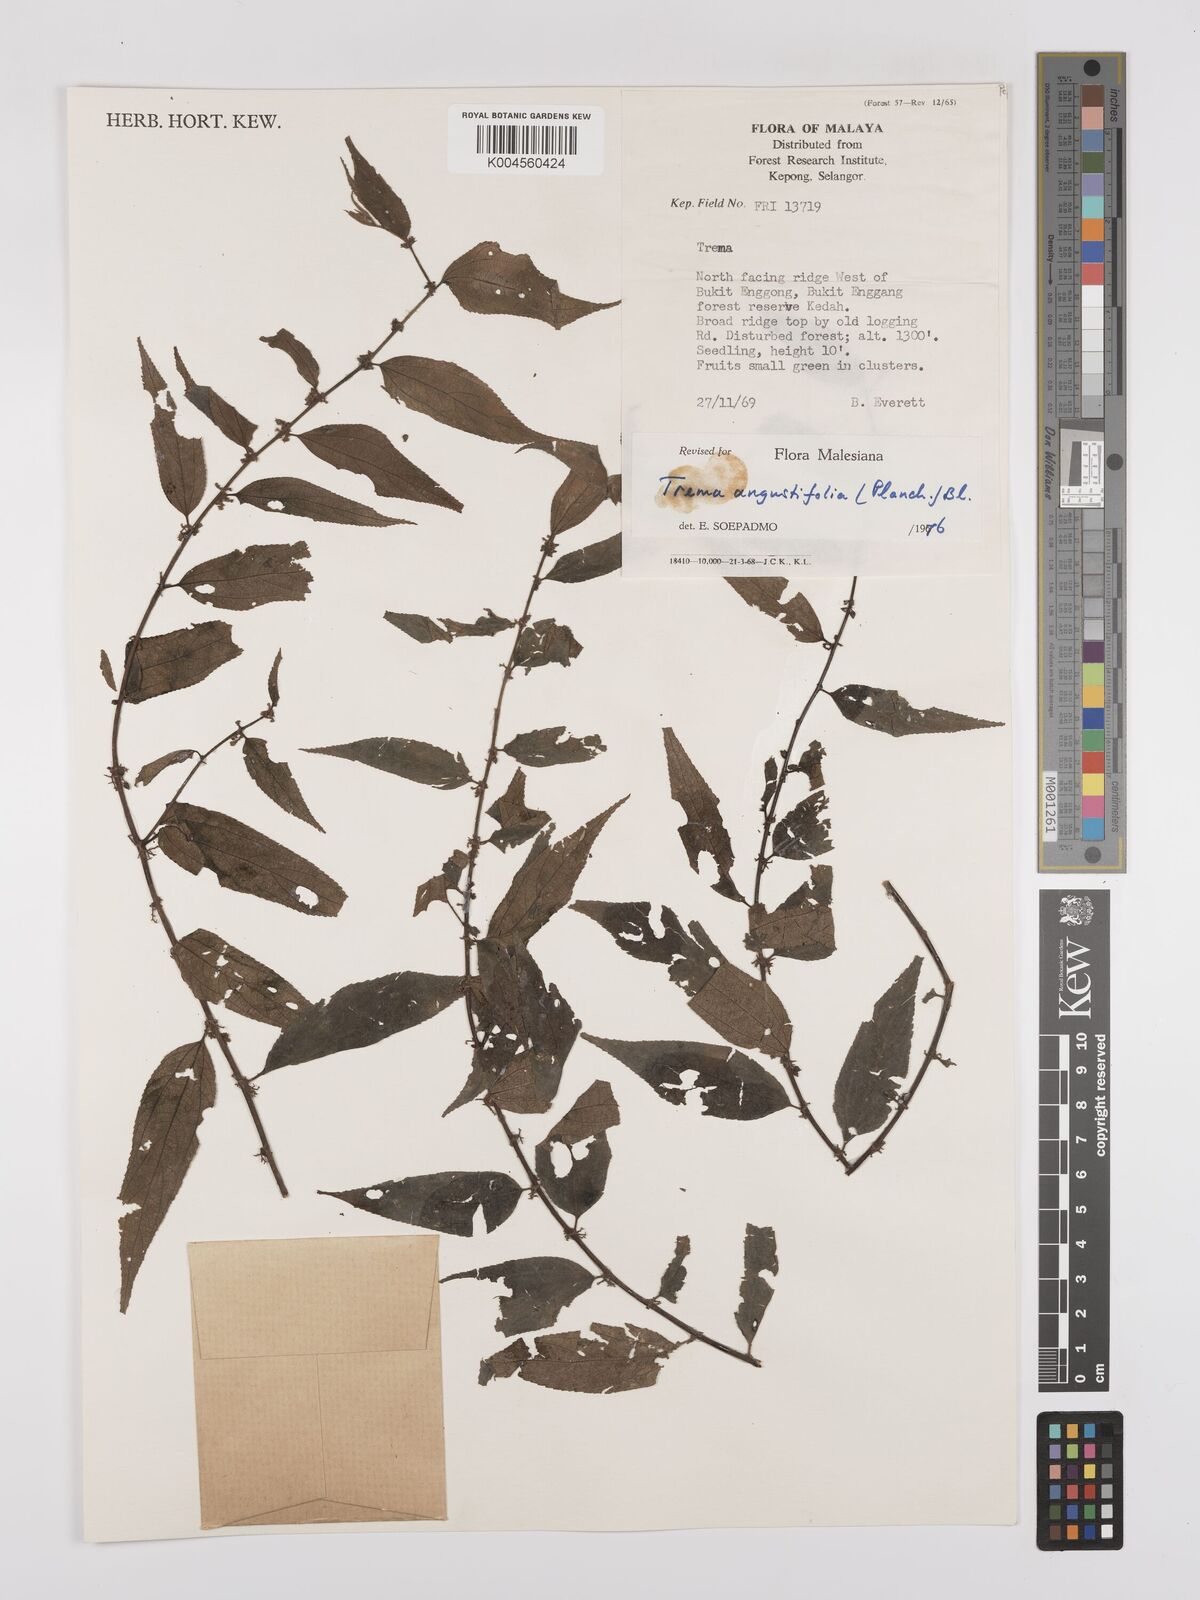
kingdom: Plantae
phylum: Tracheophyta
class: Magnoliopsida
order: Rosales
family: Cannabaceae
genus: Trema
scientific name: Trema angustifolium
